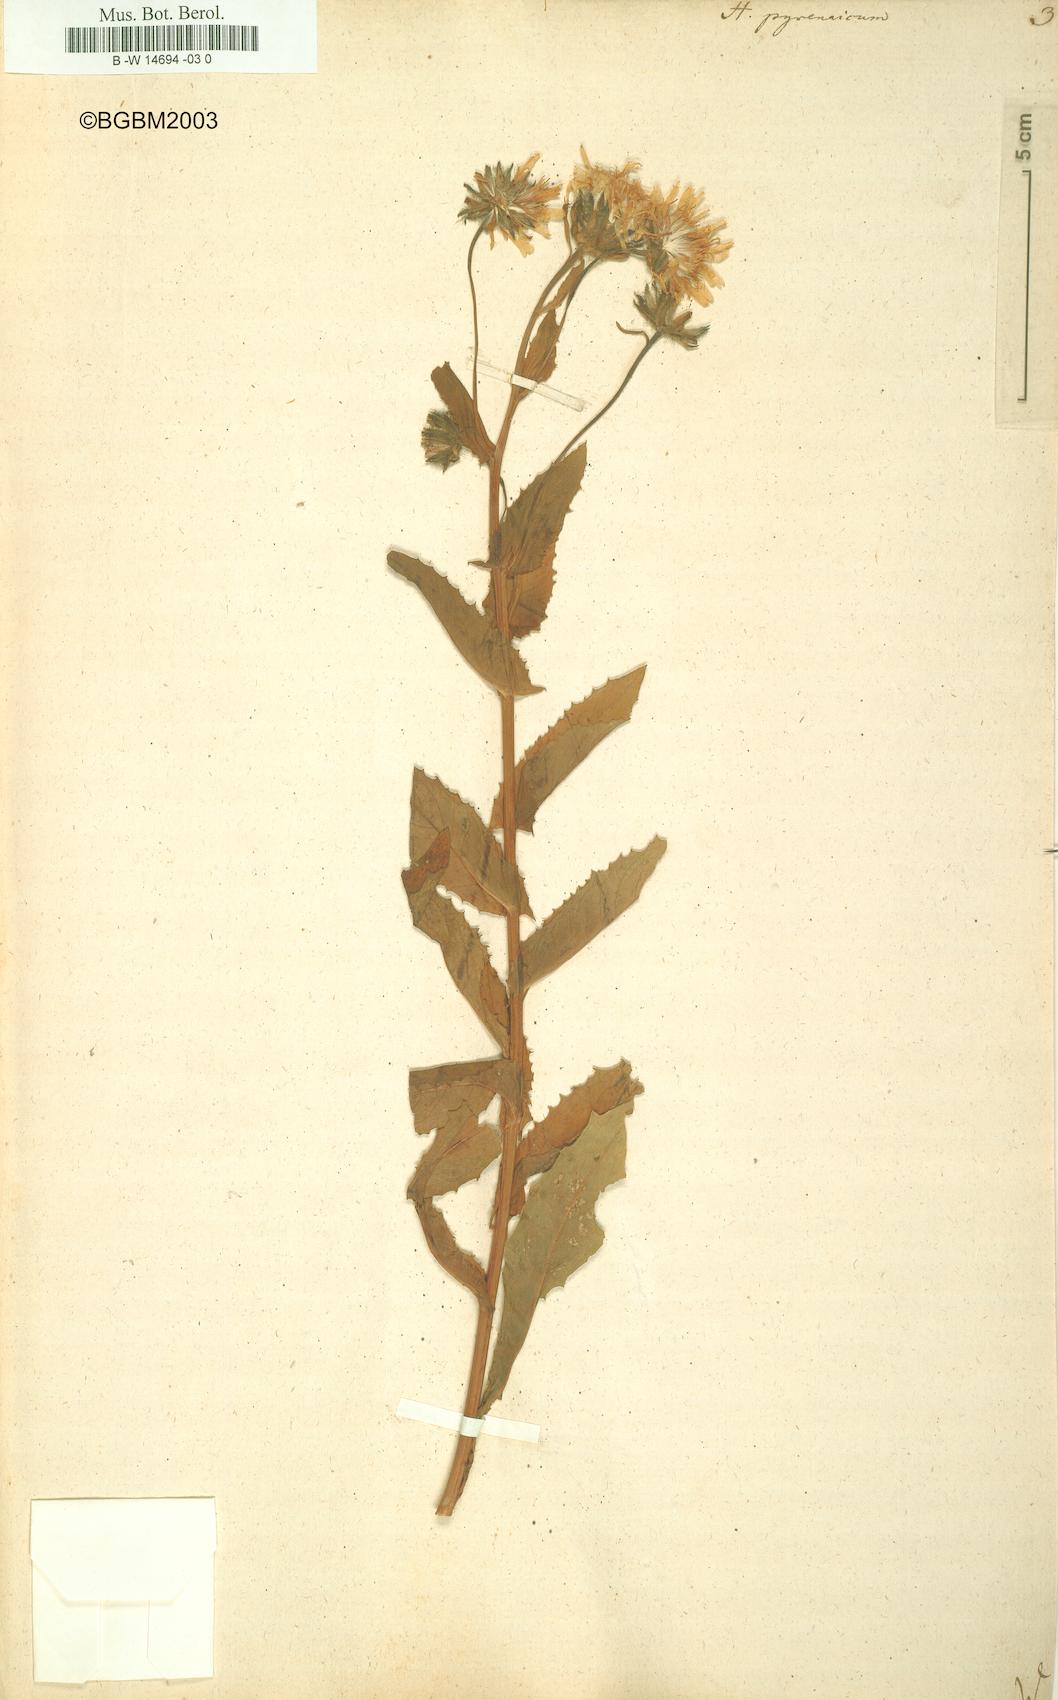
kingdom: Plantae
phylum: Tracheophyta
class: Magnoliopsida
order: Asterales
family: Asteraceae
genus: Hieracium
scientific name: Hieracium pyrenaicum
